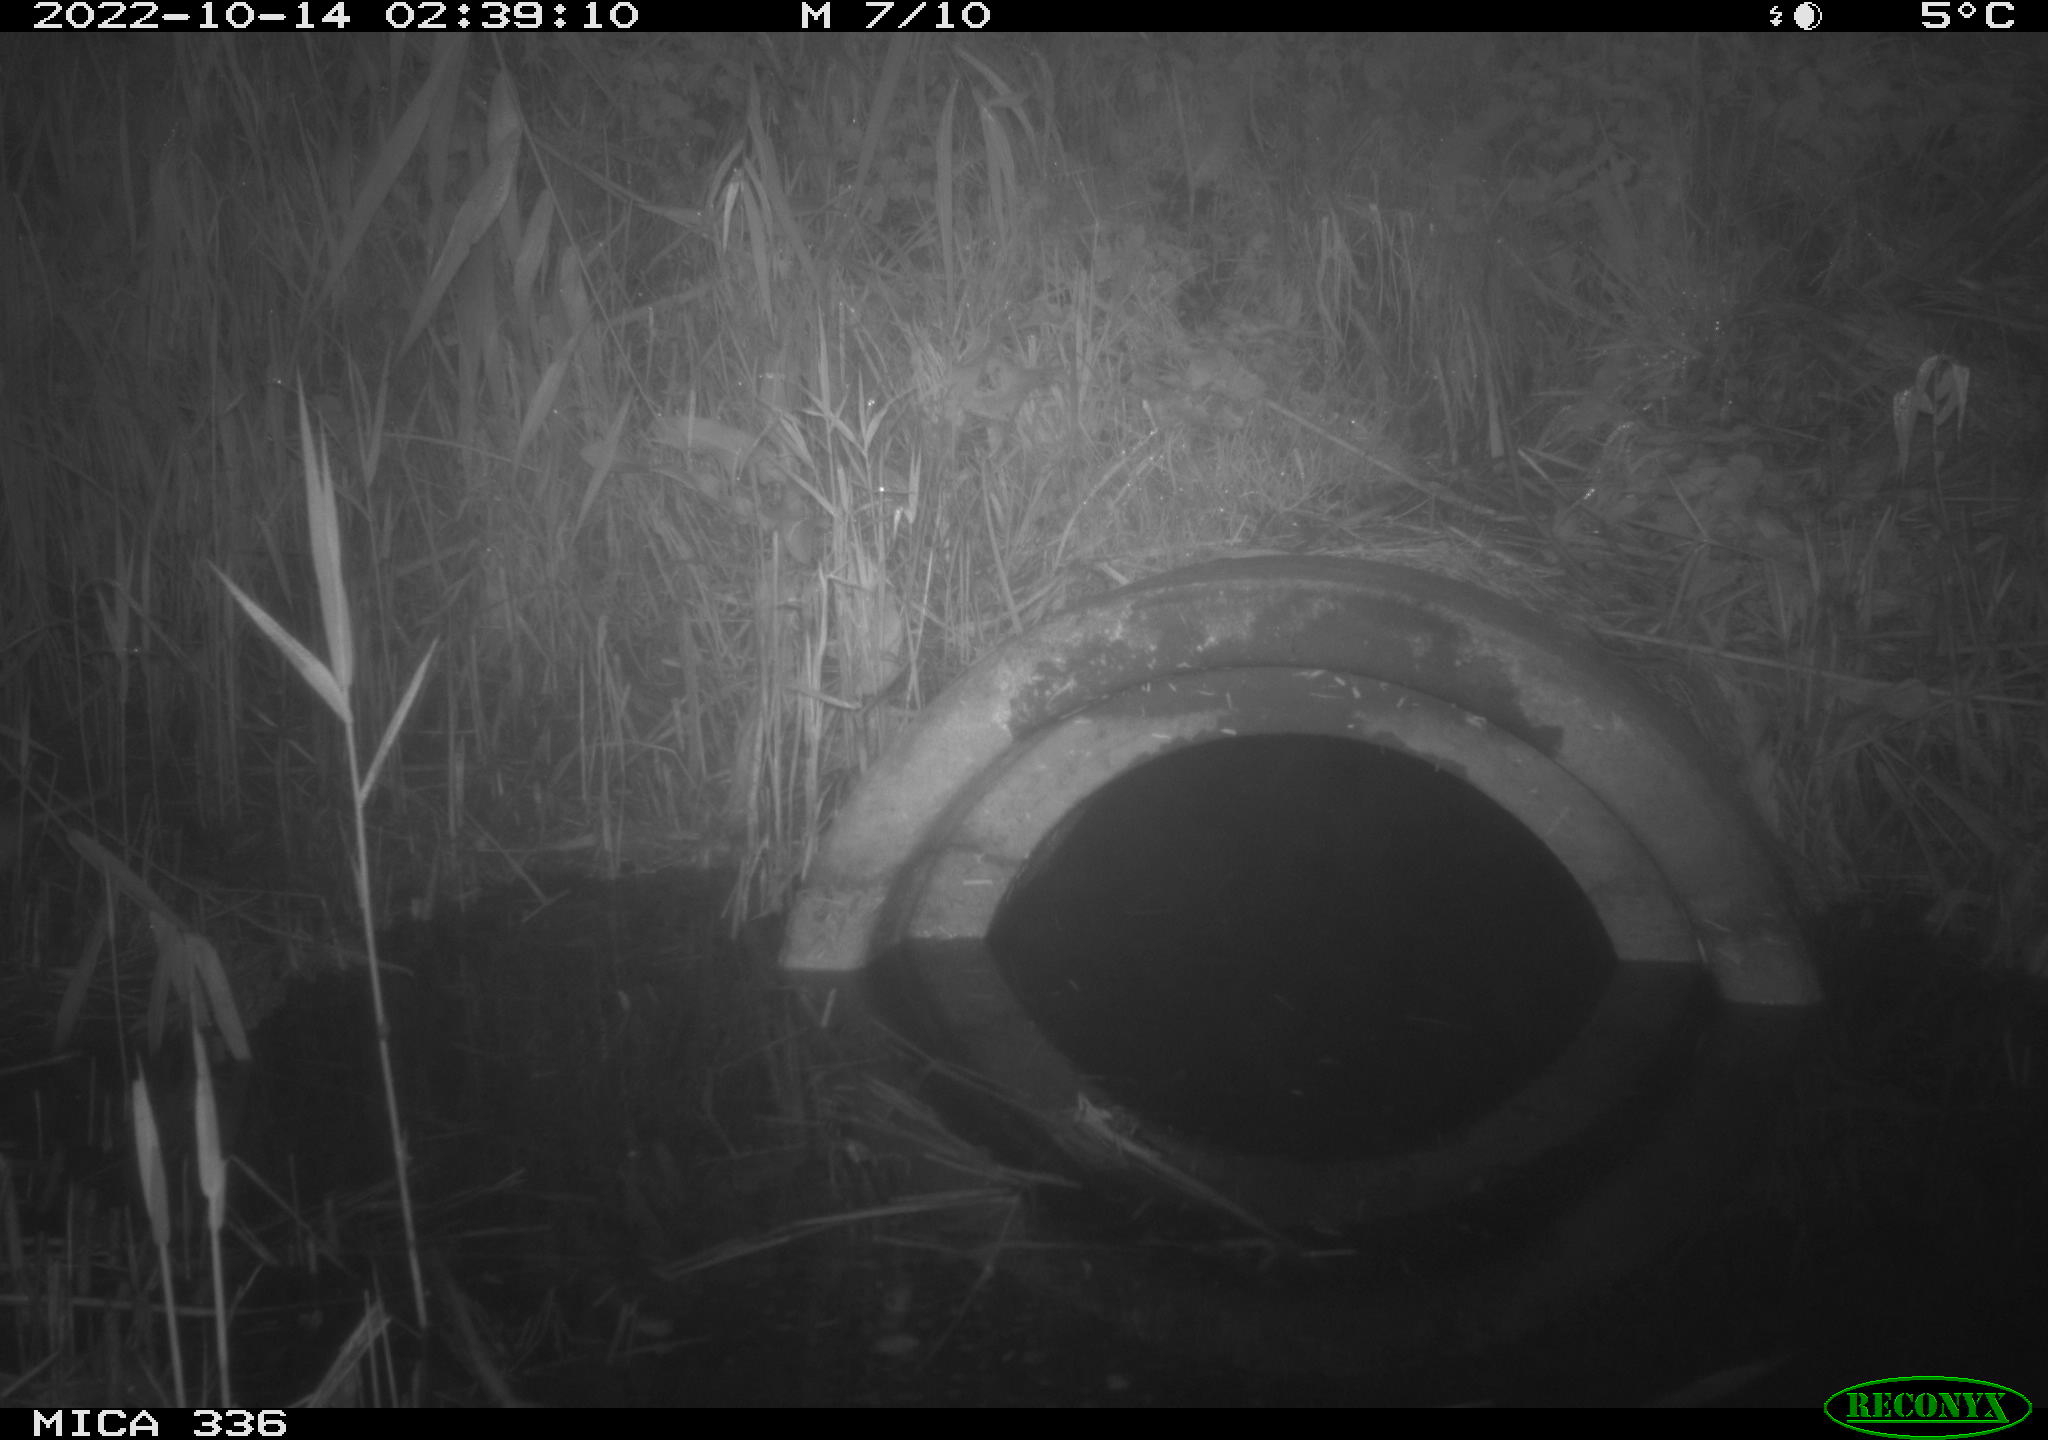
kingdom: Animalia
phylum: Chordata
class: Mammalia
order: Rodentia
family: Muridae
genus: Rattus
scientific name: Rattus norvegicus
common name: Brown rat
